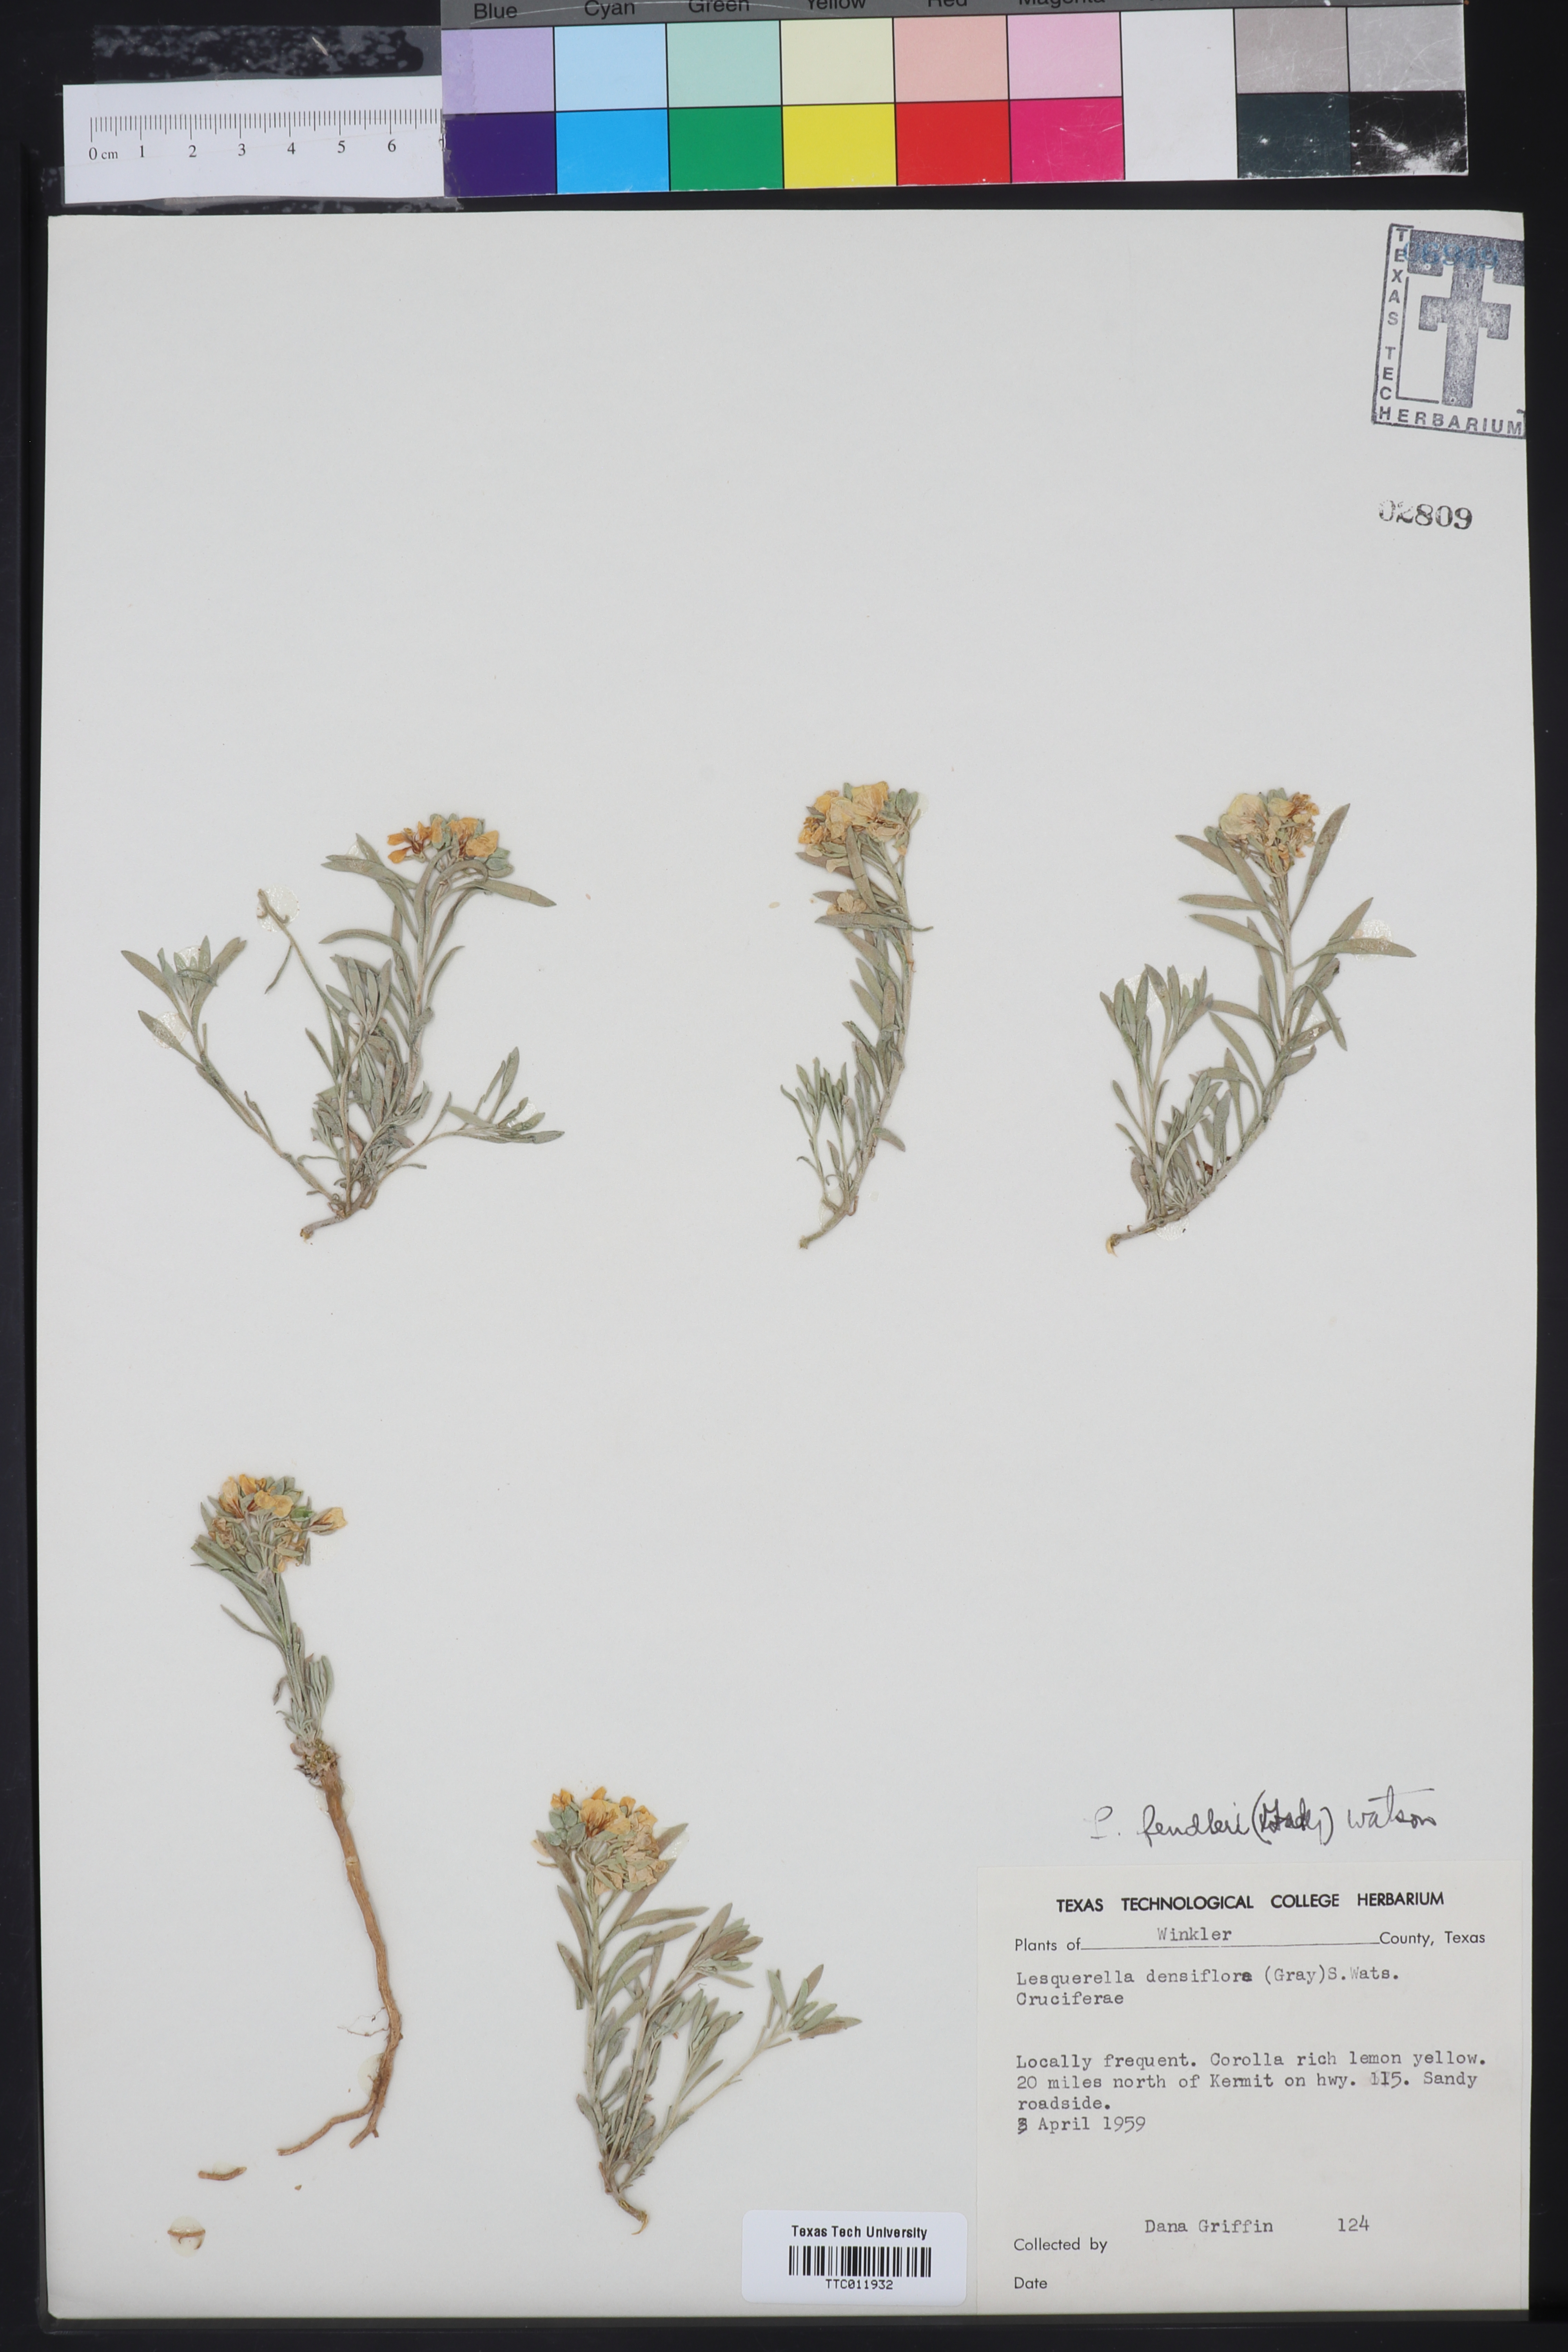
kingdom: Plantae
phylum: Tracheophyta
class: Magnoliopsida
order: Brassicales
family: Brassicaceae
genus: Physaria
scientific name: Physaria fendleri
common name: Fendler's bladderpod
